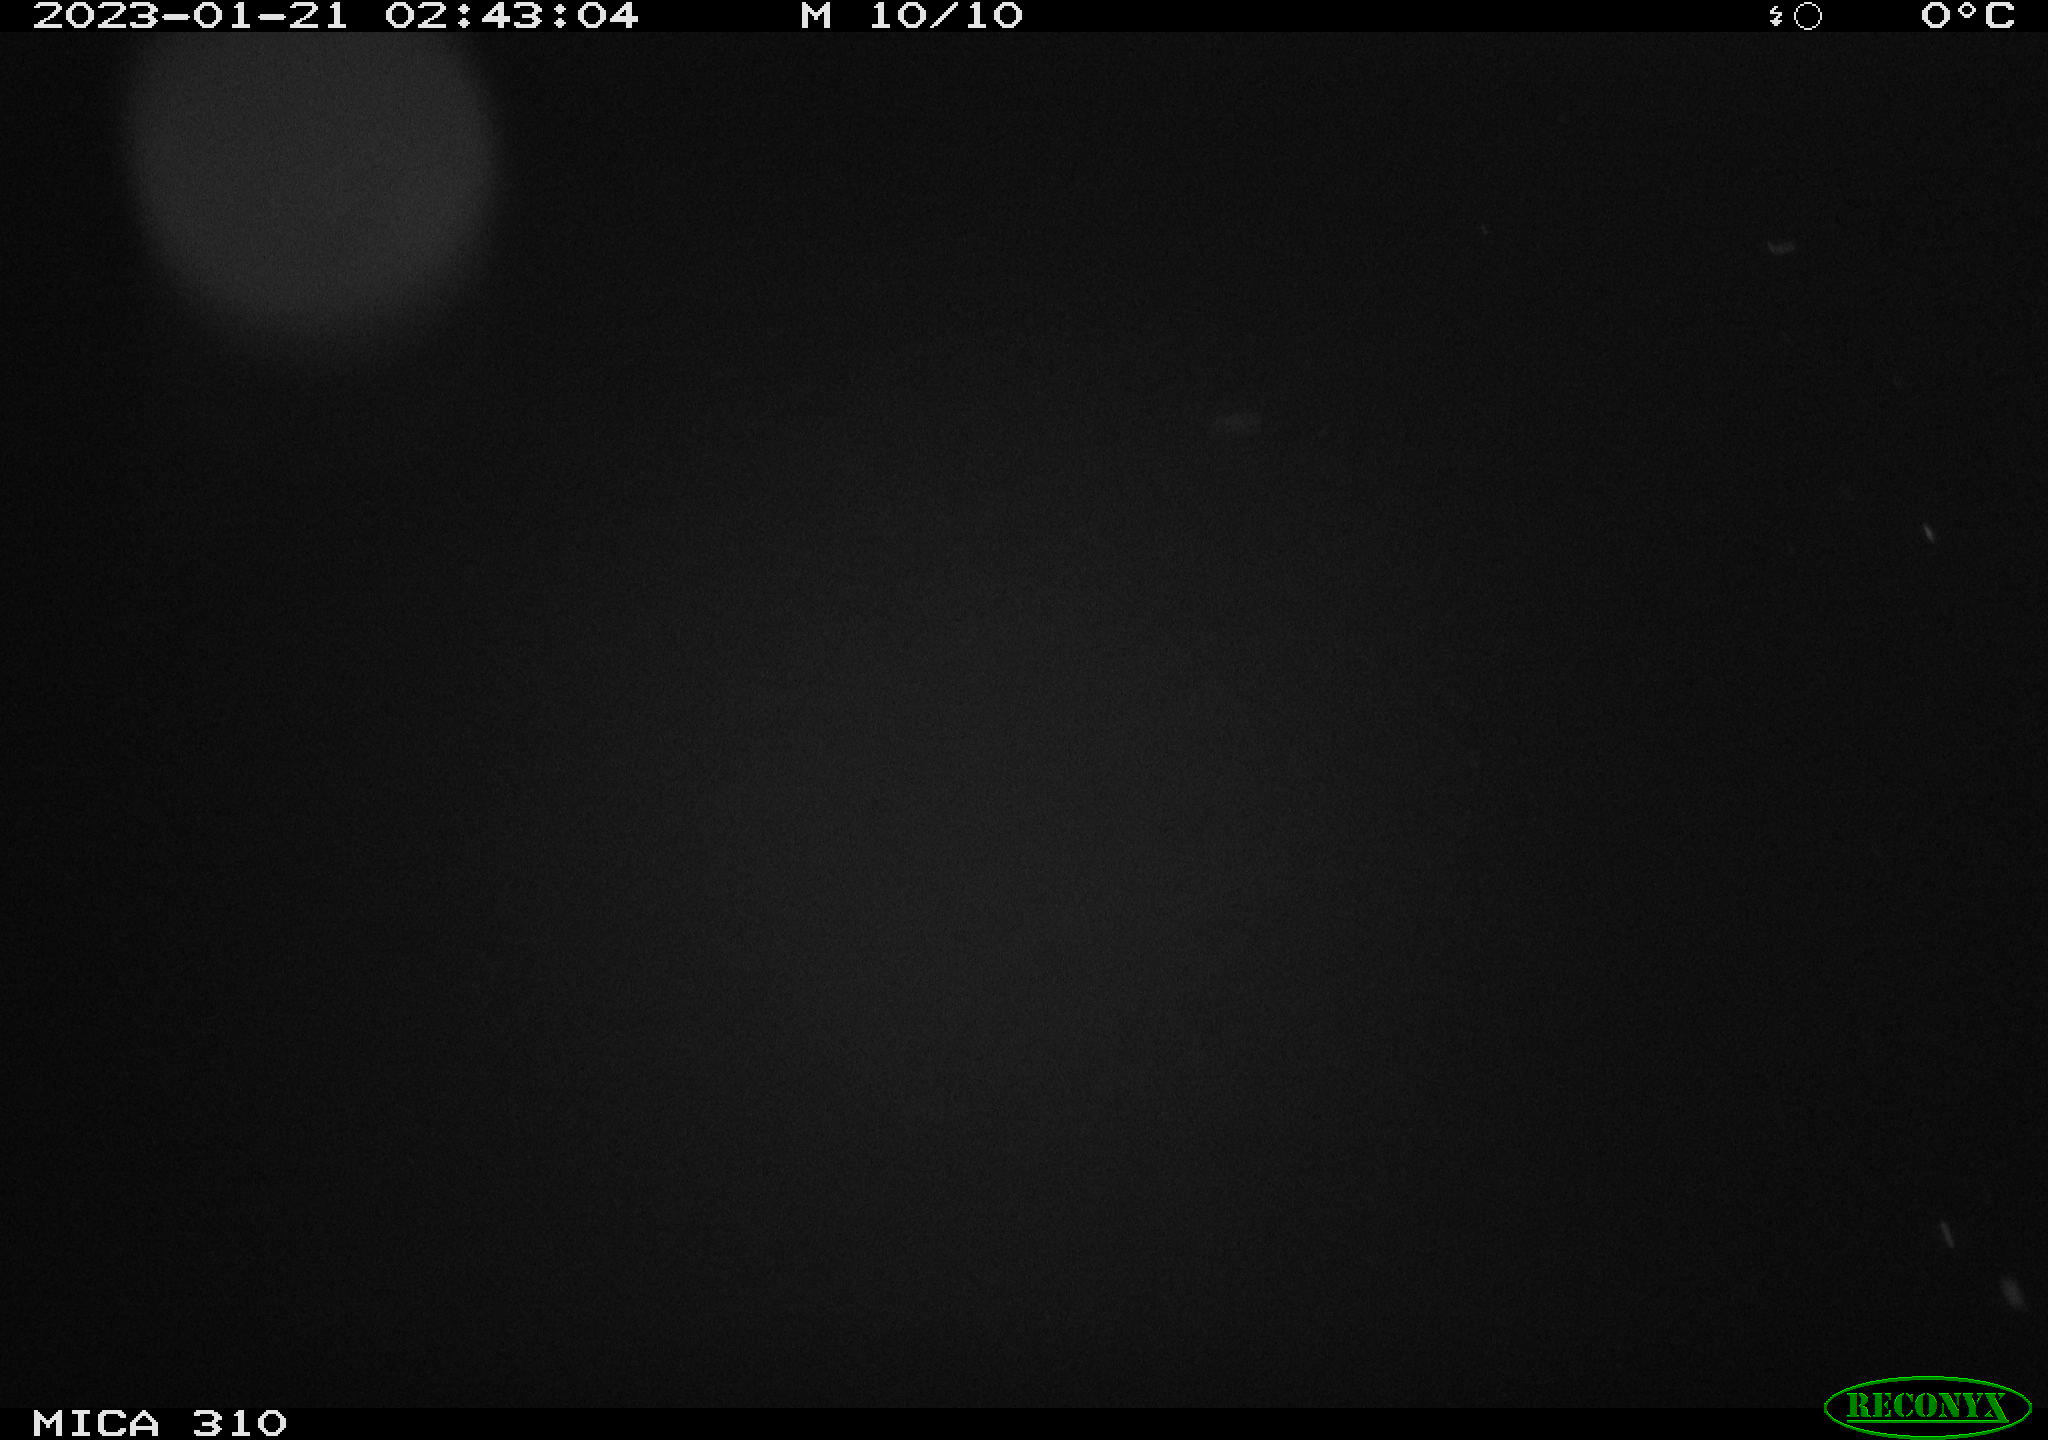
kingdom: Animalia
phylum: Chordata
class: Mammalia
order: Rodentia
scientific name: Rodentia
